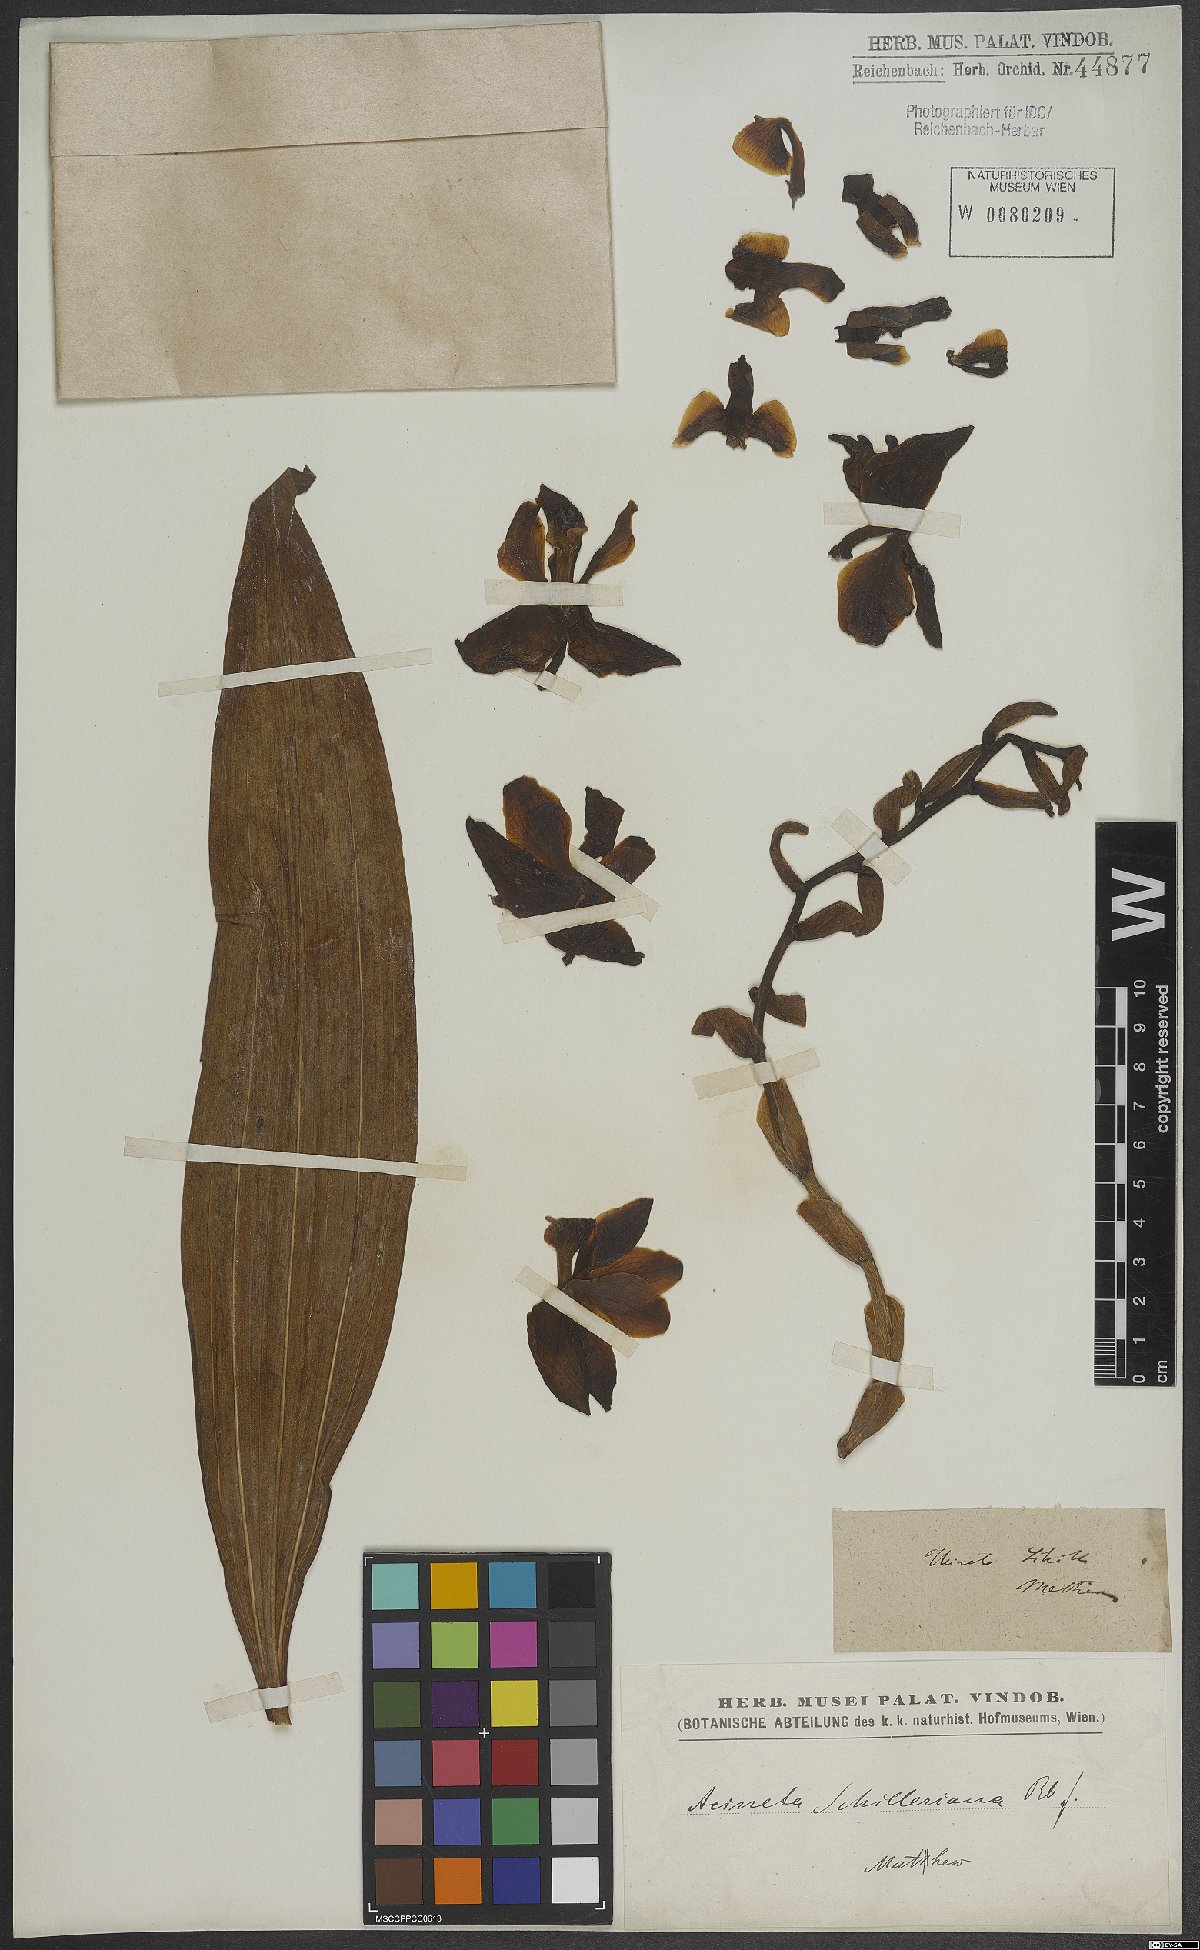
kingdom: Plantae
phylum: Tracheophyta
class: Liliopsida
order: Asparagales
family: Orchidaceae
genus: Acineta
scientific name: Acineta superba
